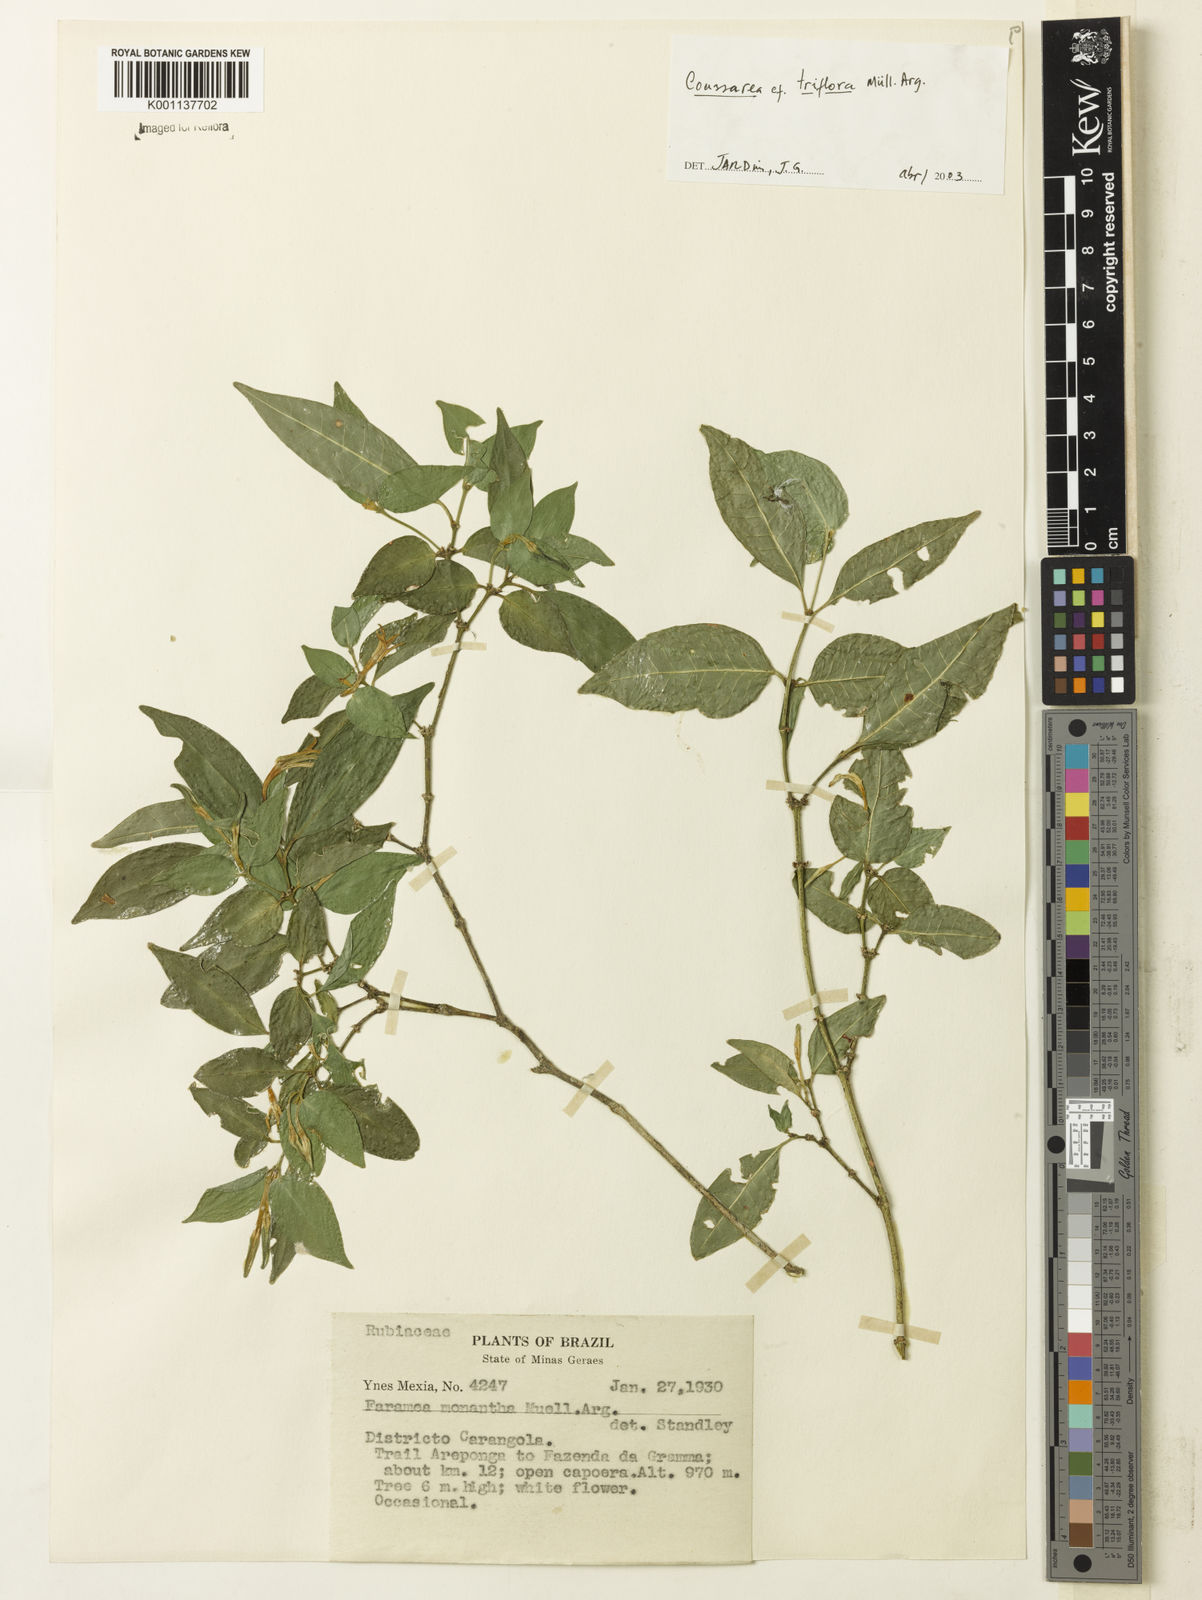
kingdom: Plantae
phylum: Tracheophyta
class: Magnoliopsida
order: Gentianales
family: Rubiaceae
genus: Coussarea
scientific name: Coussarea
